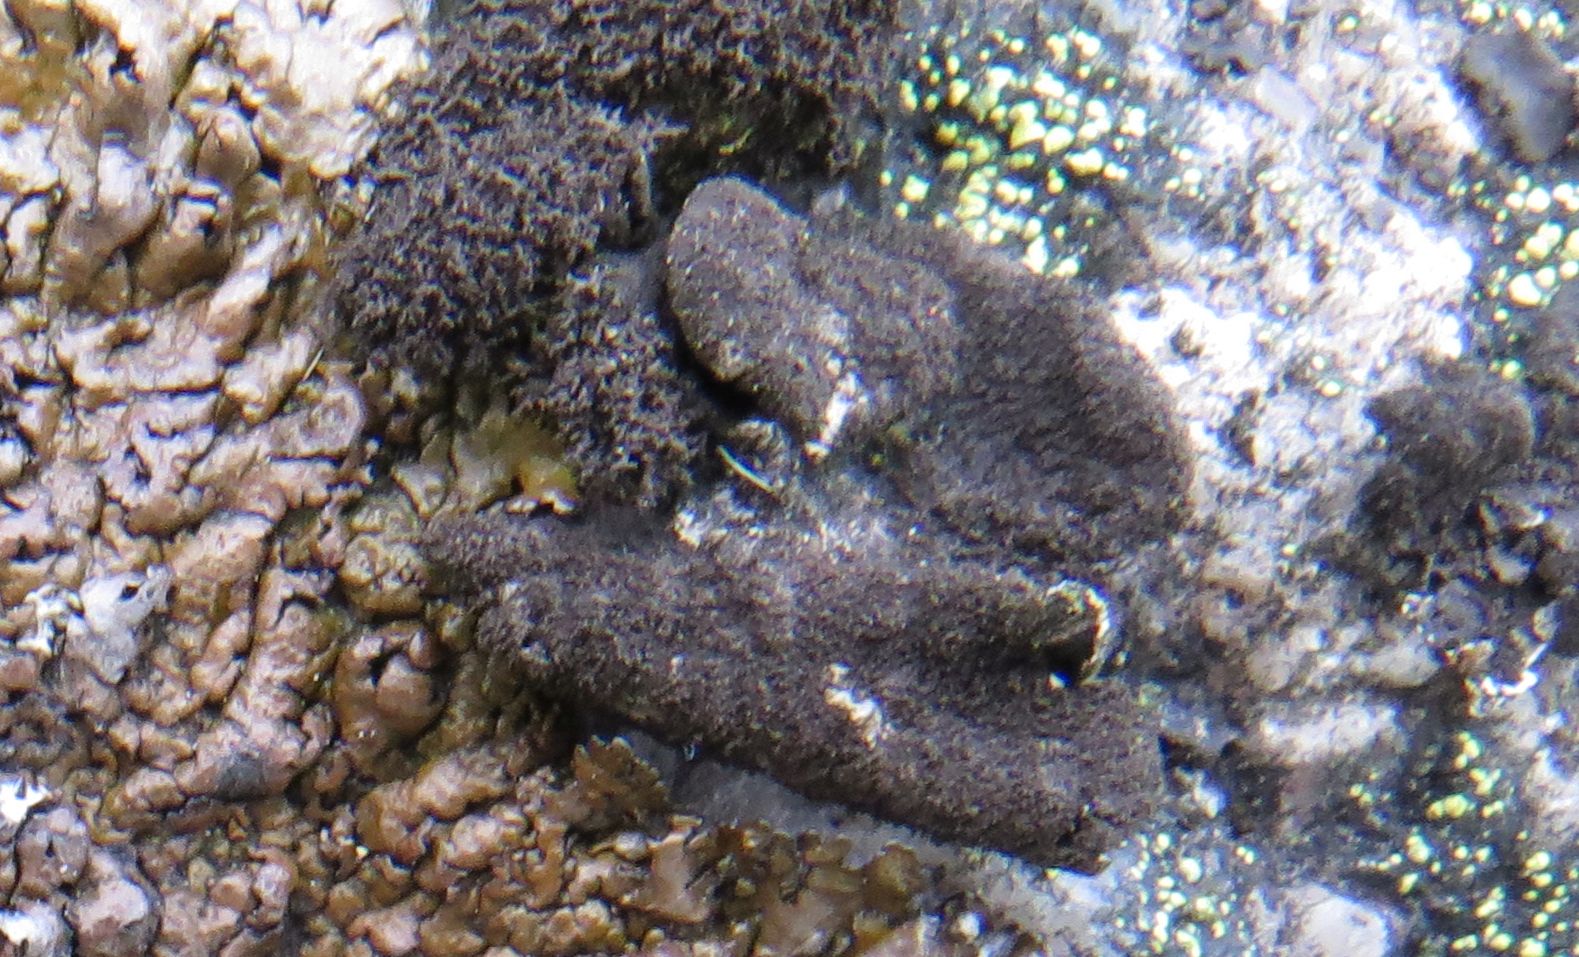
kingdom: Fungi
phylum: Ascomycota
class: Lecanoromycetes
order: Umbilicariales
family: Umbilicariaceae
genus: Umbilicaria
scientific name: Umbilicaria deusta
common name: kliddet navlelav
